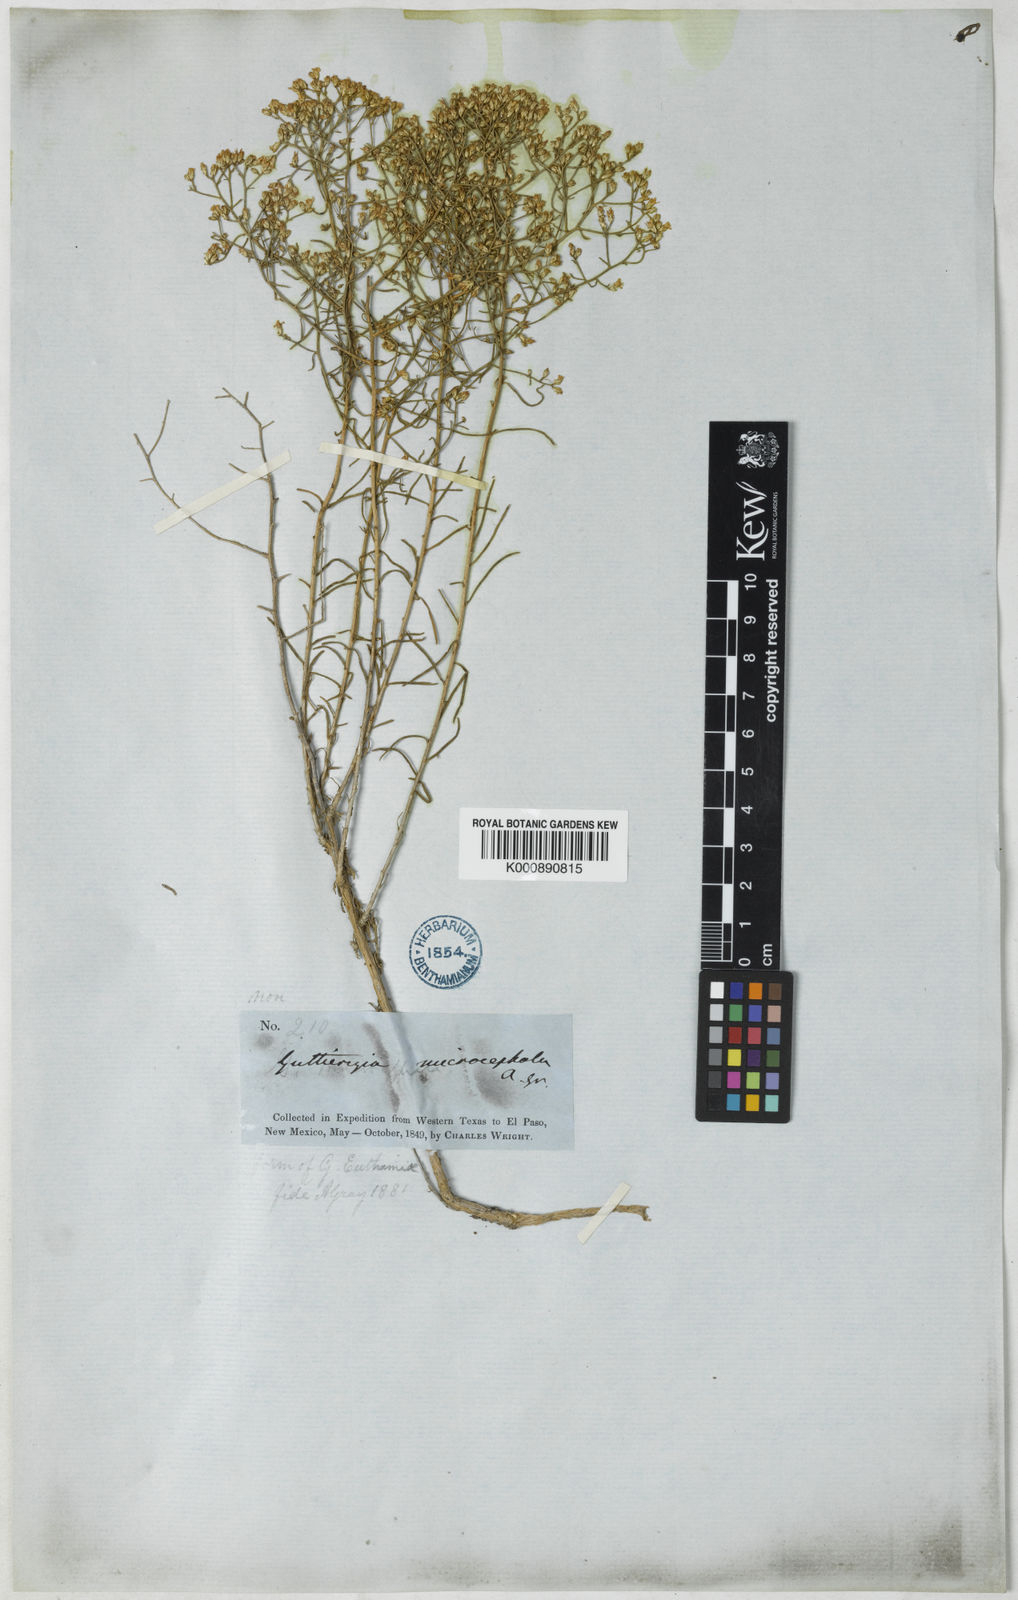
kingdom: Plantae
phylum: Tracheophyta
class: Magnoliopsida
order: Asterales
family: Asteraceae
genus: Gutierrezia
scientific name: Gutierrezia microcephala
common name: Thread snakeweed
